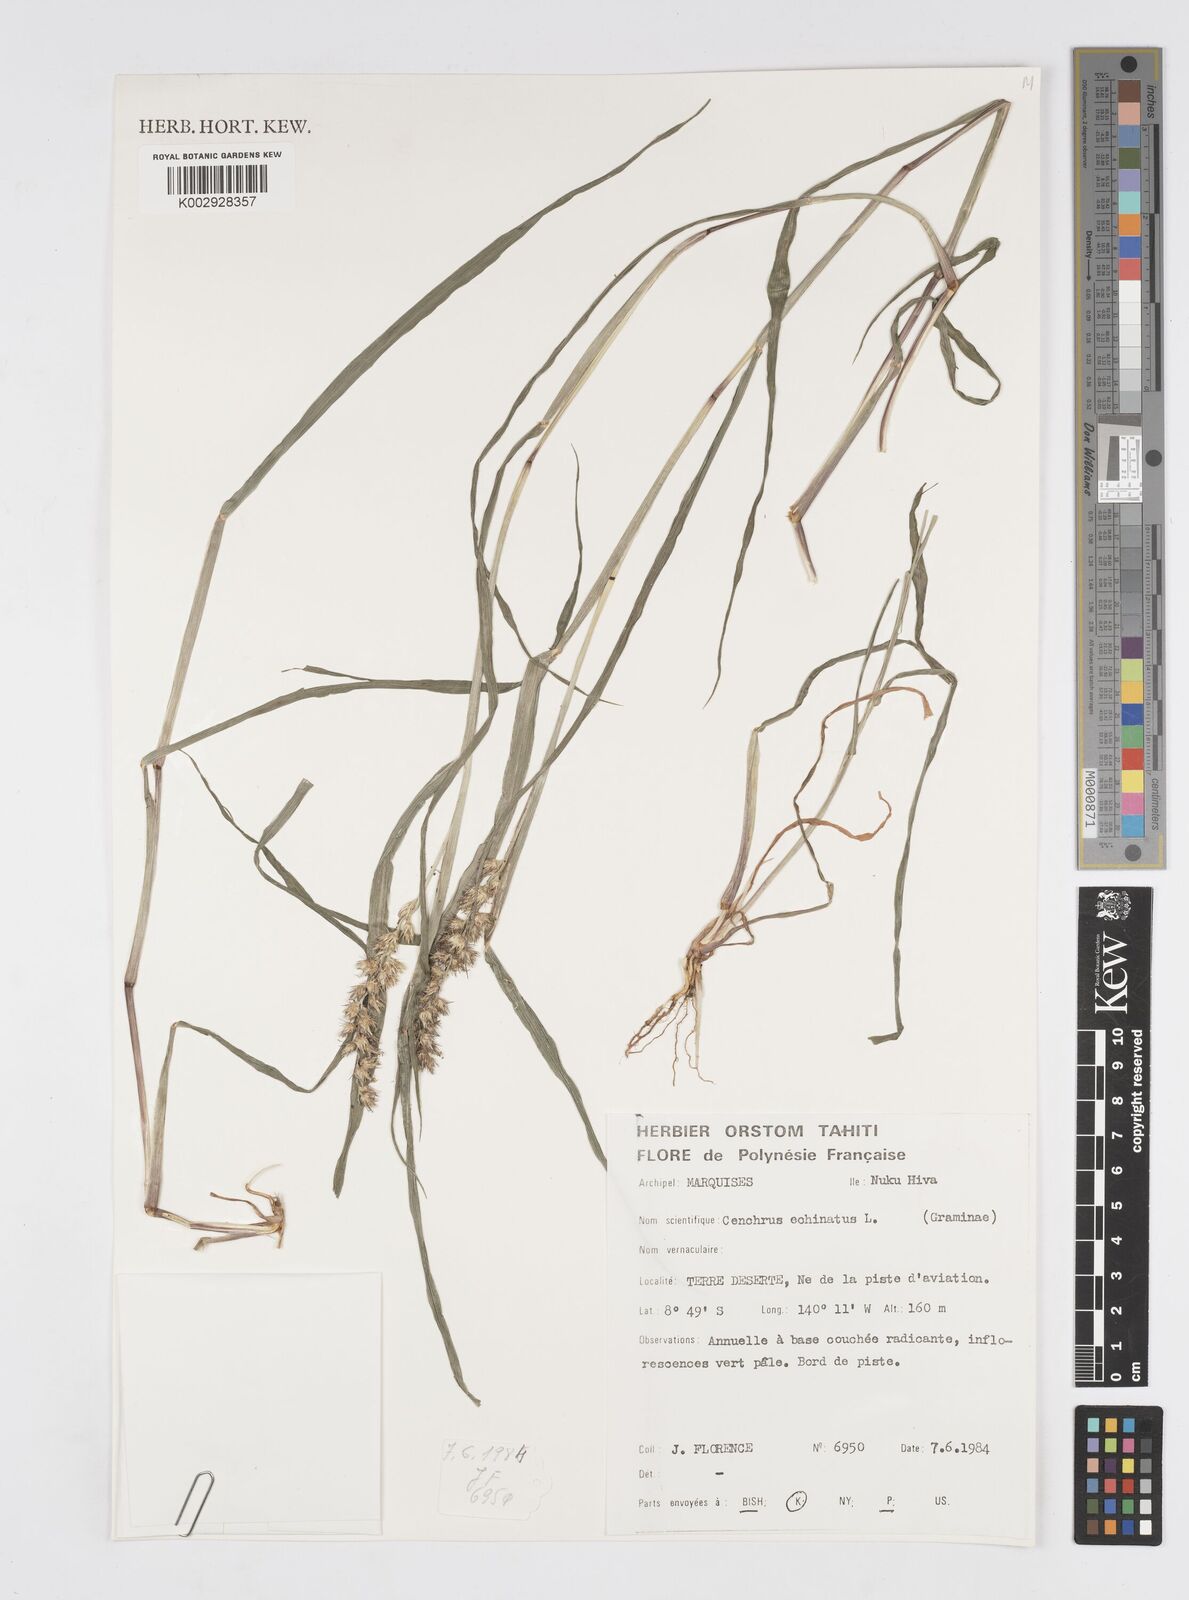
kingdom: Plantae
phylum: Tracheophyta
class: Liliopsida
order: Poales
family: Poaceae
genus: Cenchrus
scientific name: Cenchrus echinatus
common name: Southern sandbur
